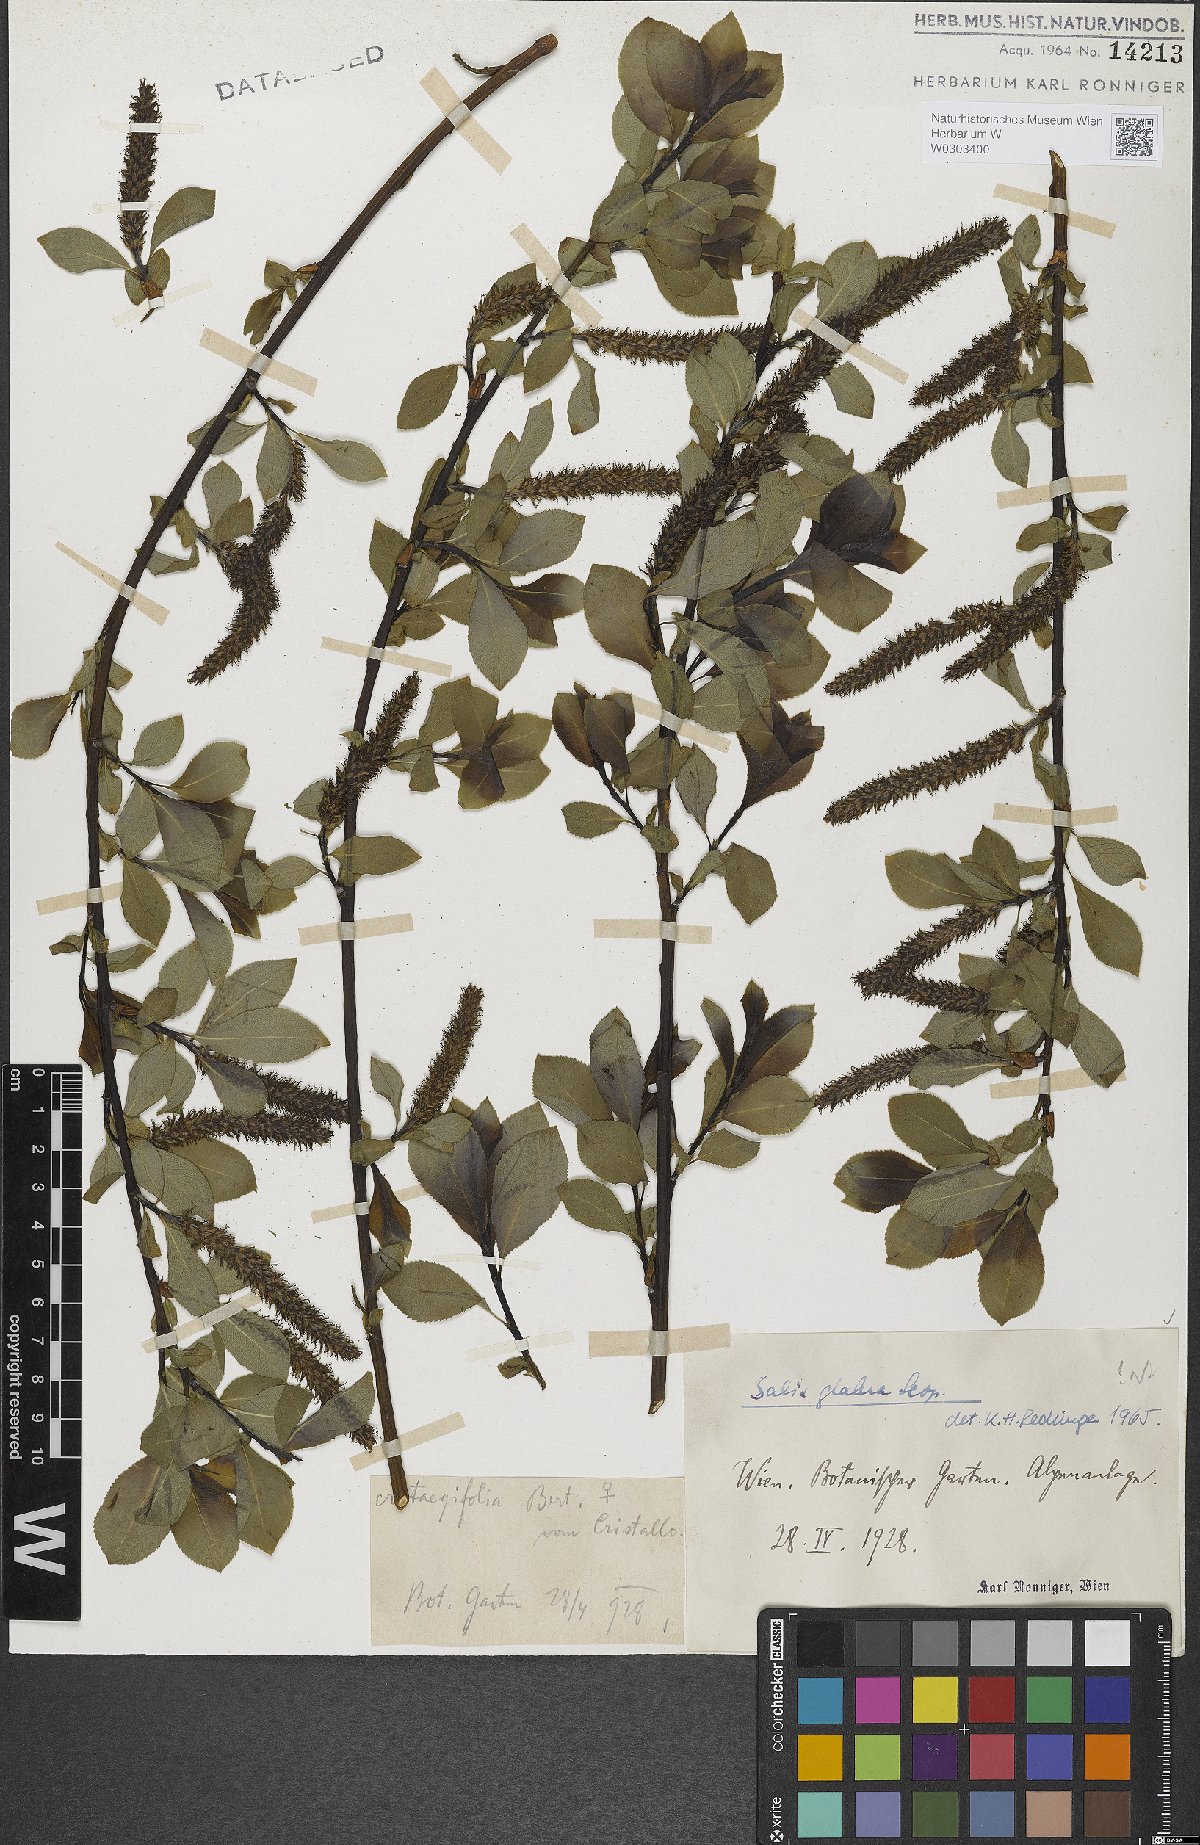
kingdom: Plantae
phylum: Tracheophyta
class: Magnoliopsida
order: Malpighiales
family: Salicaceae
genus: Salix
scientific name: Salix glabra
